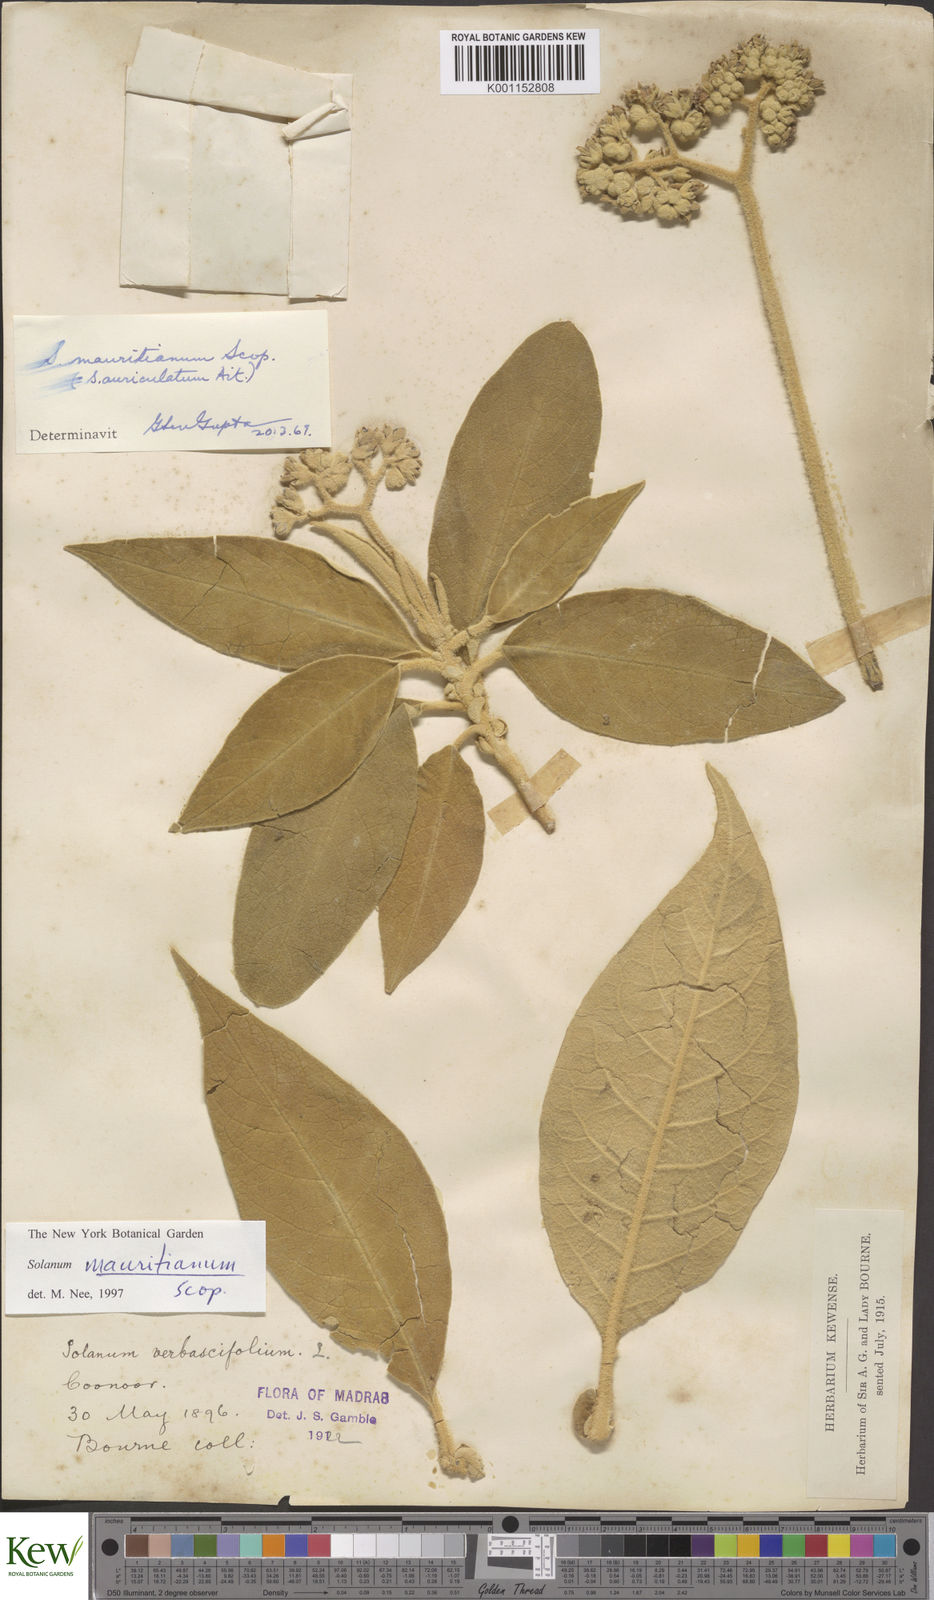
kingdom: Plantae
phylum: Tracheophyta
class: Magnoliopsida
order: Solanales
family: Solanaceae
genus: Solanum
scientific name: Solanum erianthum
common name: Tobacco-tree
